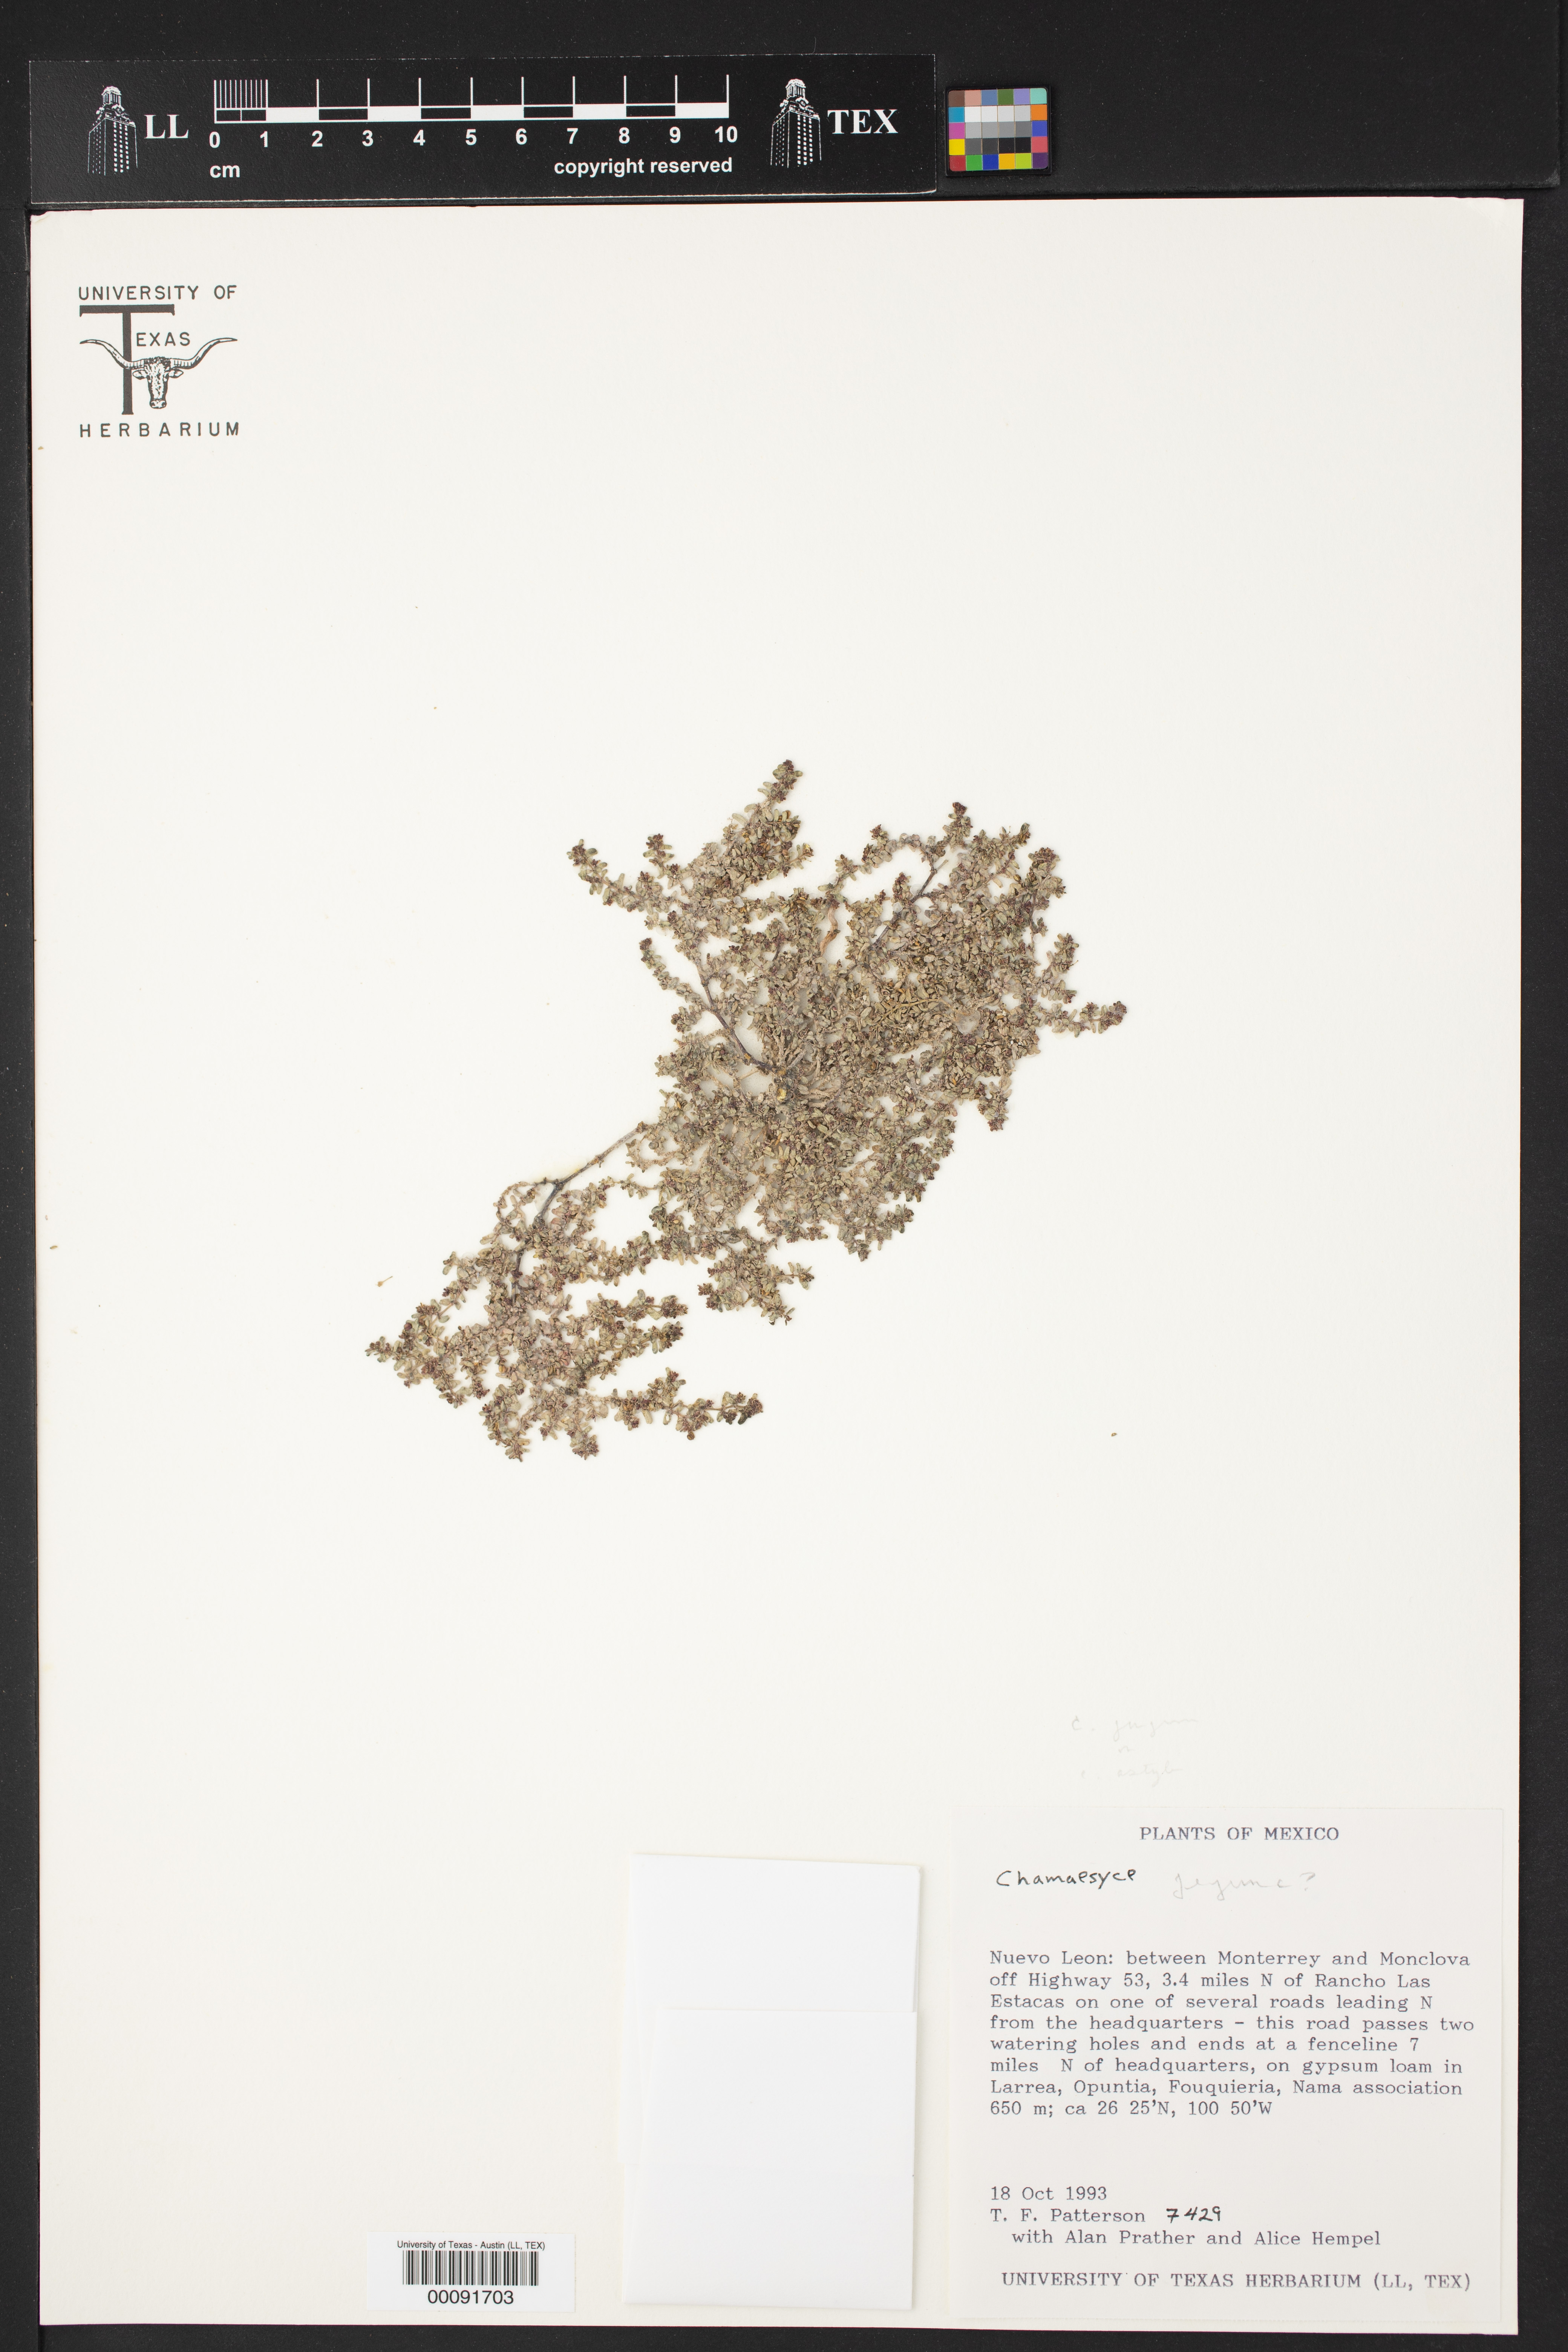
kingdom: Plantae
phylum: Tracheophyta
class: Magnoliopsida
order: Malpighiales
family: Euphorbiaceae
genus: Chamaesyce
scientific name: Chamaesyce
